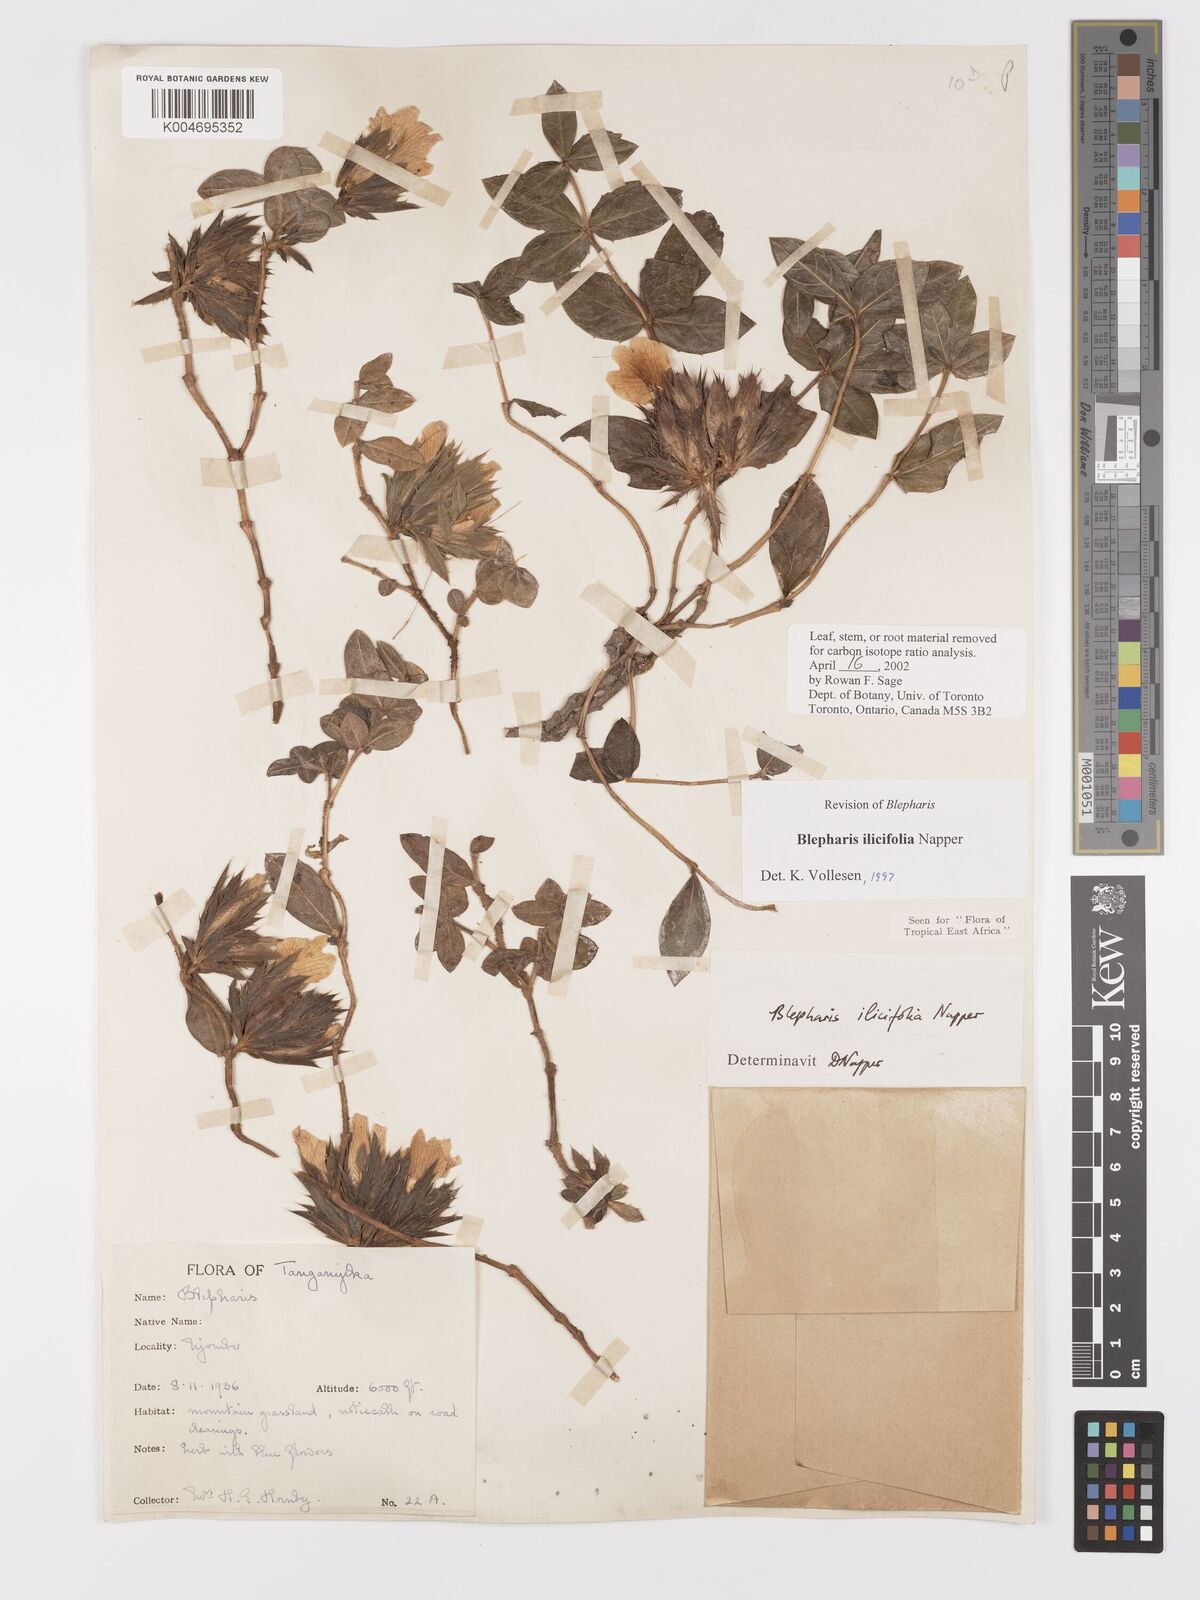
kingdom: Plantae
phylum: Tracheophyta
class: Magnoliopsida
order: Lamiales
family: Acanthaceae
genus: Blepharis
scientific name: Blepharis ilicifolia
